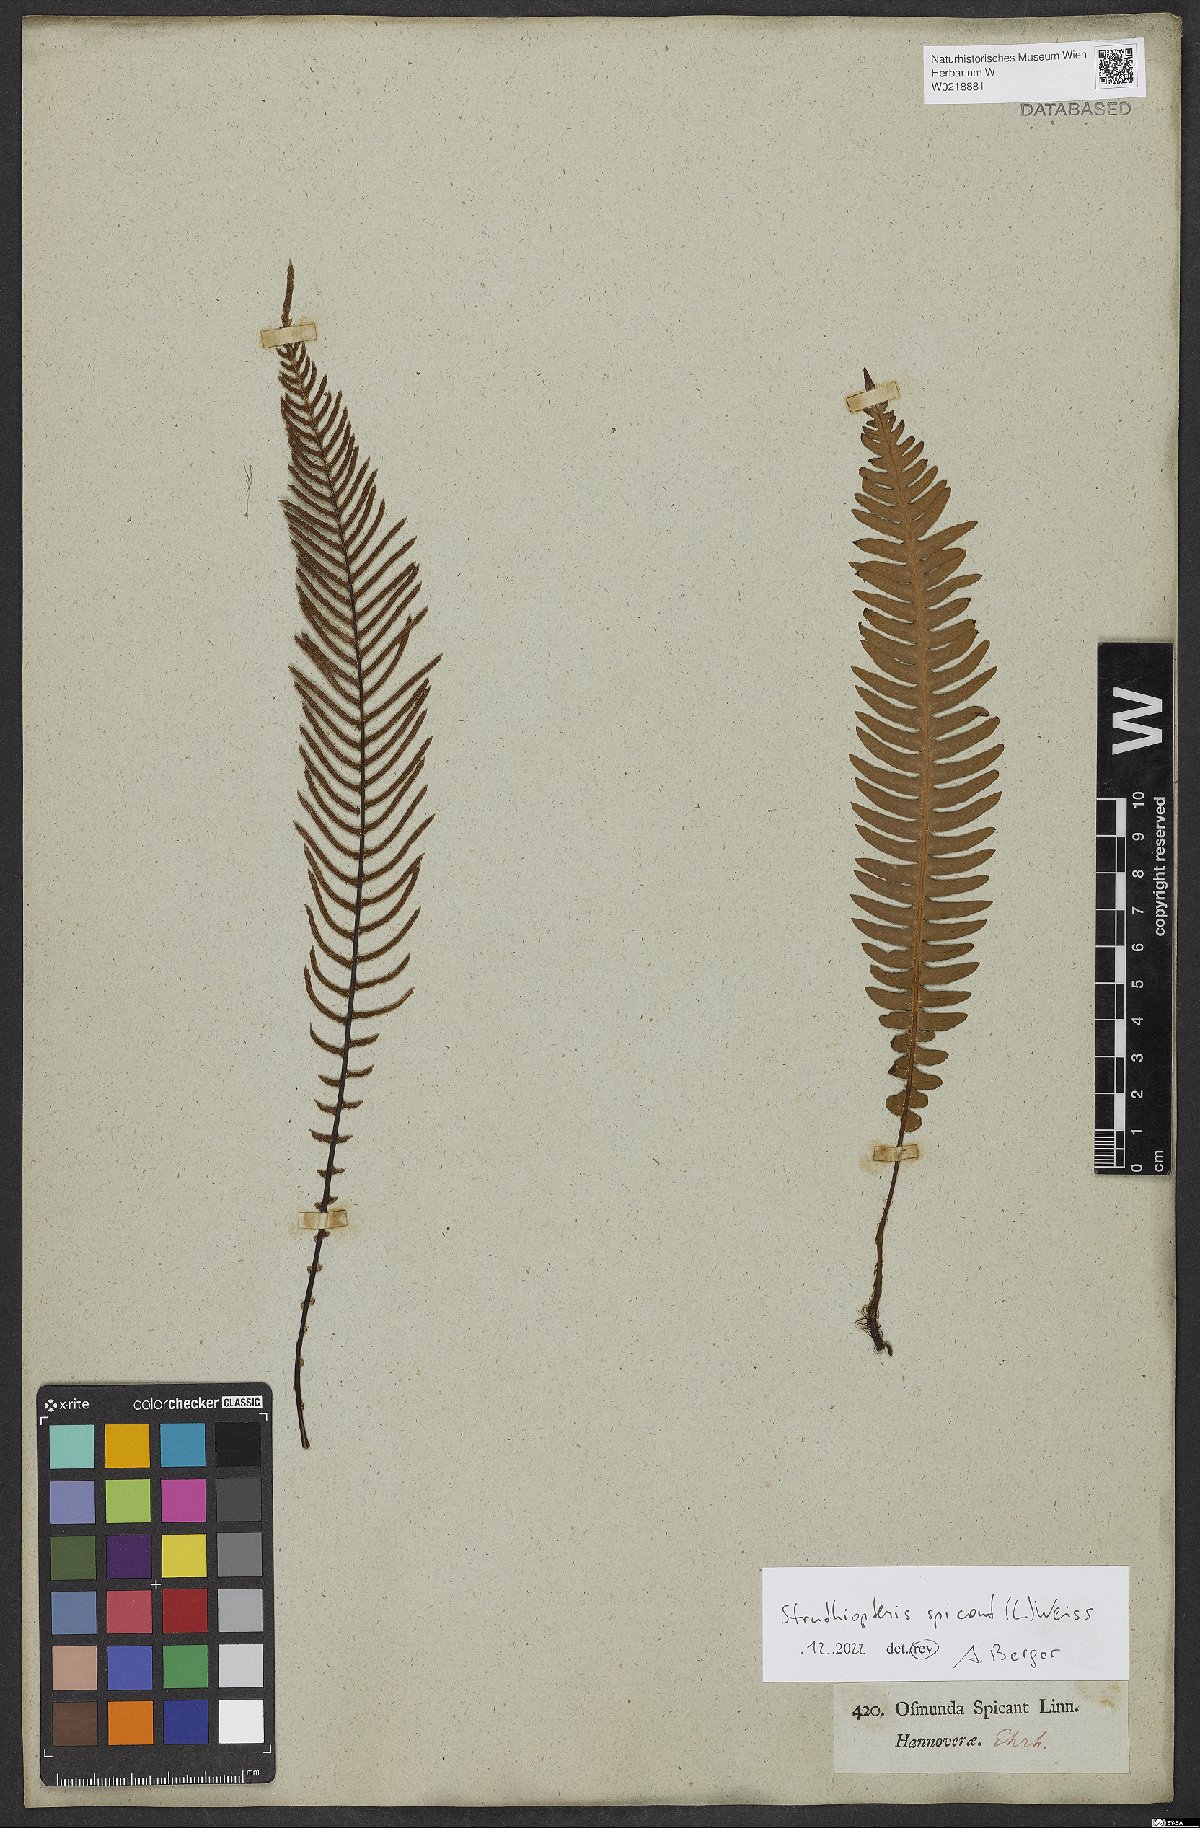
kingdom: Plantae
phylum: Tracheophyta
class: Polypodiopsida
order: Polypodiales
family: Blechnaceae
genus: Struthiopteris
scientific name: Struthiopteris spicant
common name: Deer fern
